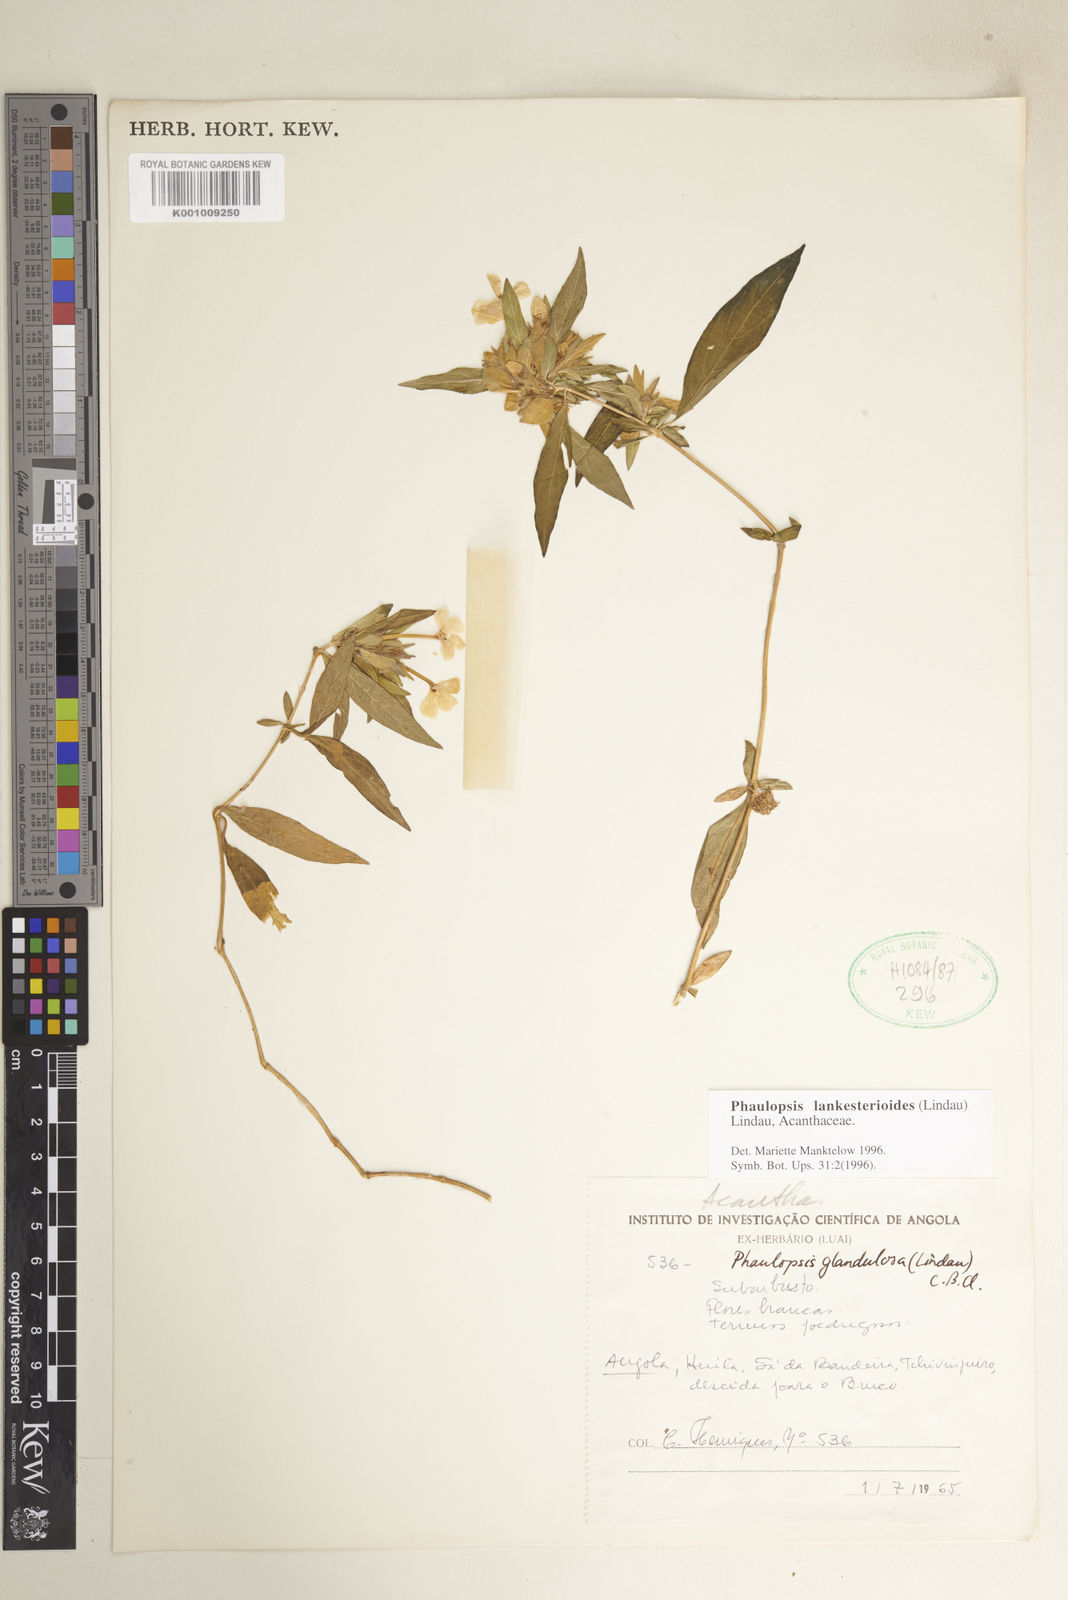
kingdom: Plantae
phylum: Tracheophyta
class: Magnoliopsida
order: Lamiales
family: Acanthaceae
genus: Phaulopsis
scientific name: Phaulopsis lankesterioides
